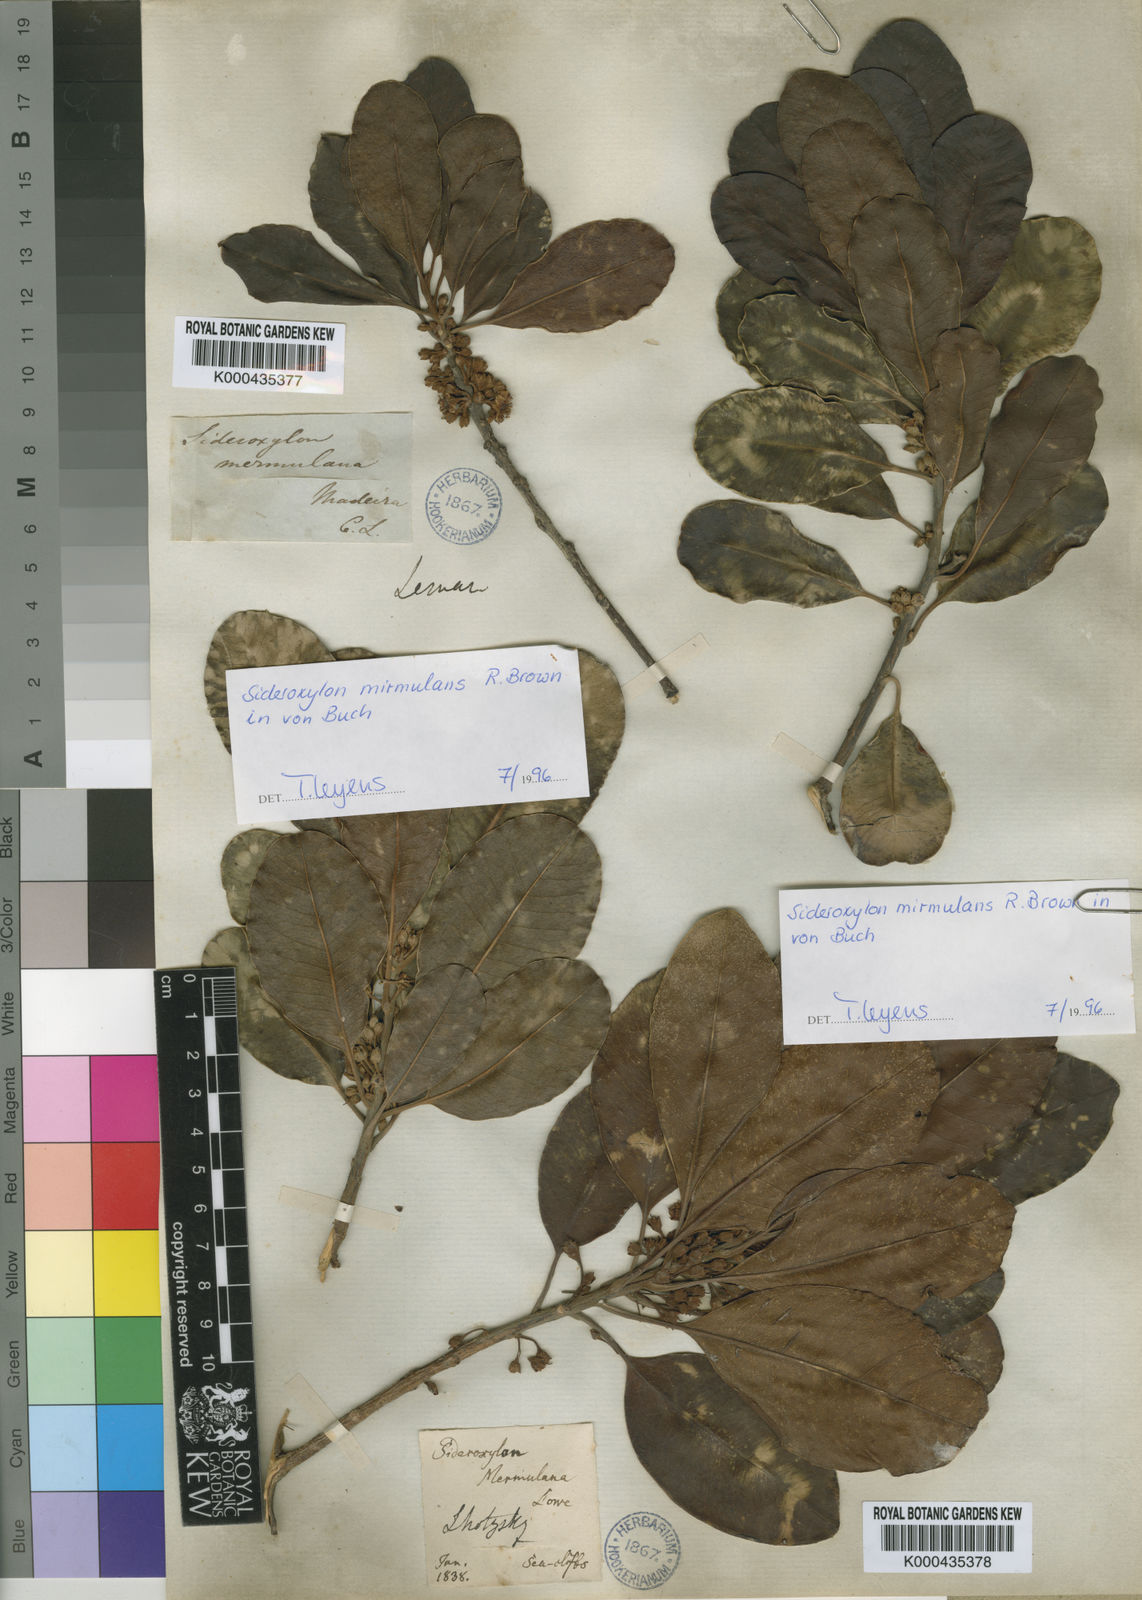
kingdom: Plantae
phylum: Tracheophyta
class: Magnoliopsida
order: Ericales
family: Sapotaceae
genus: Sideroxylon
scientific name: Sideroxylon
